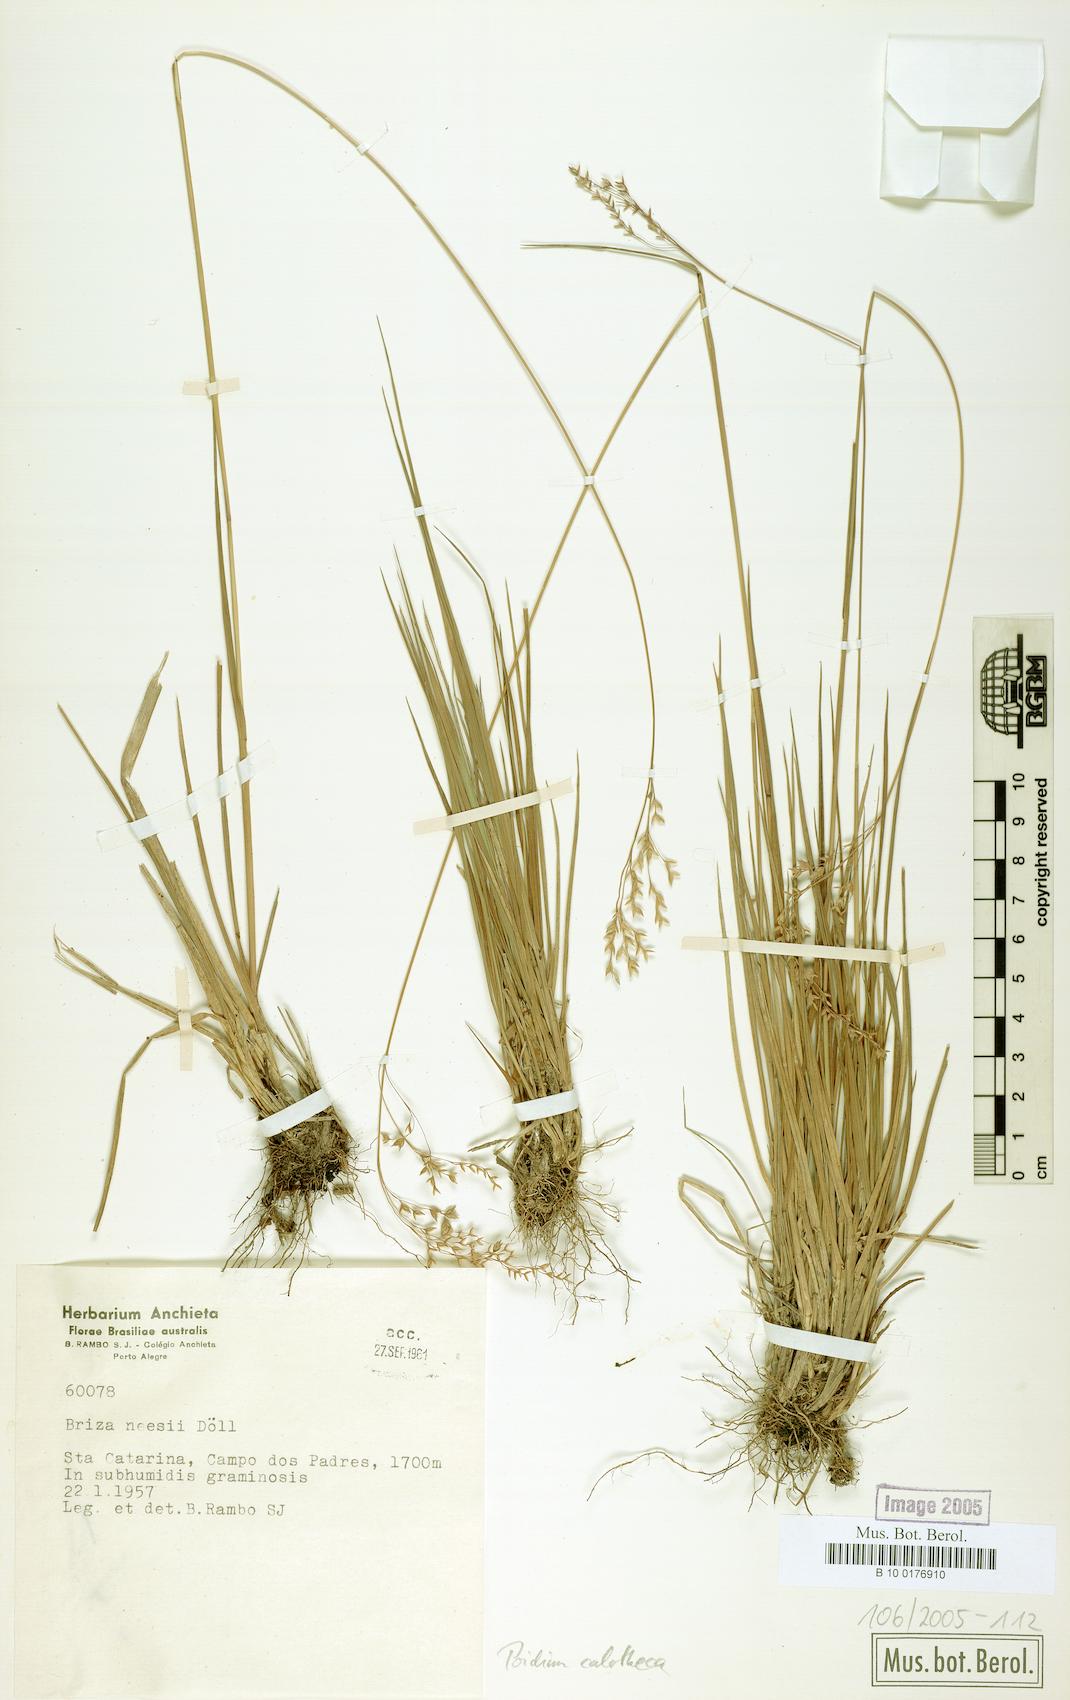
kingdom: Plantae
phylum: Tracheophyta
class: Liliopsida
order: Poales
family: Poaceae
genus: Poidium
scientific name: Poidium calotheca
